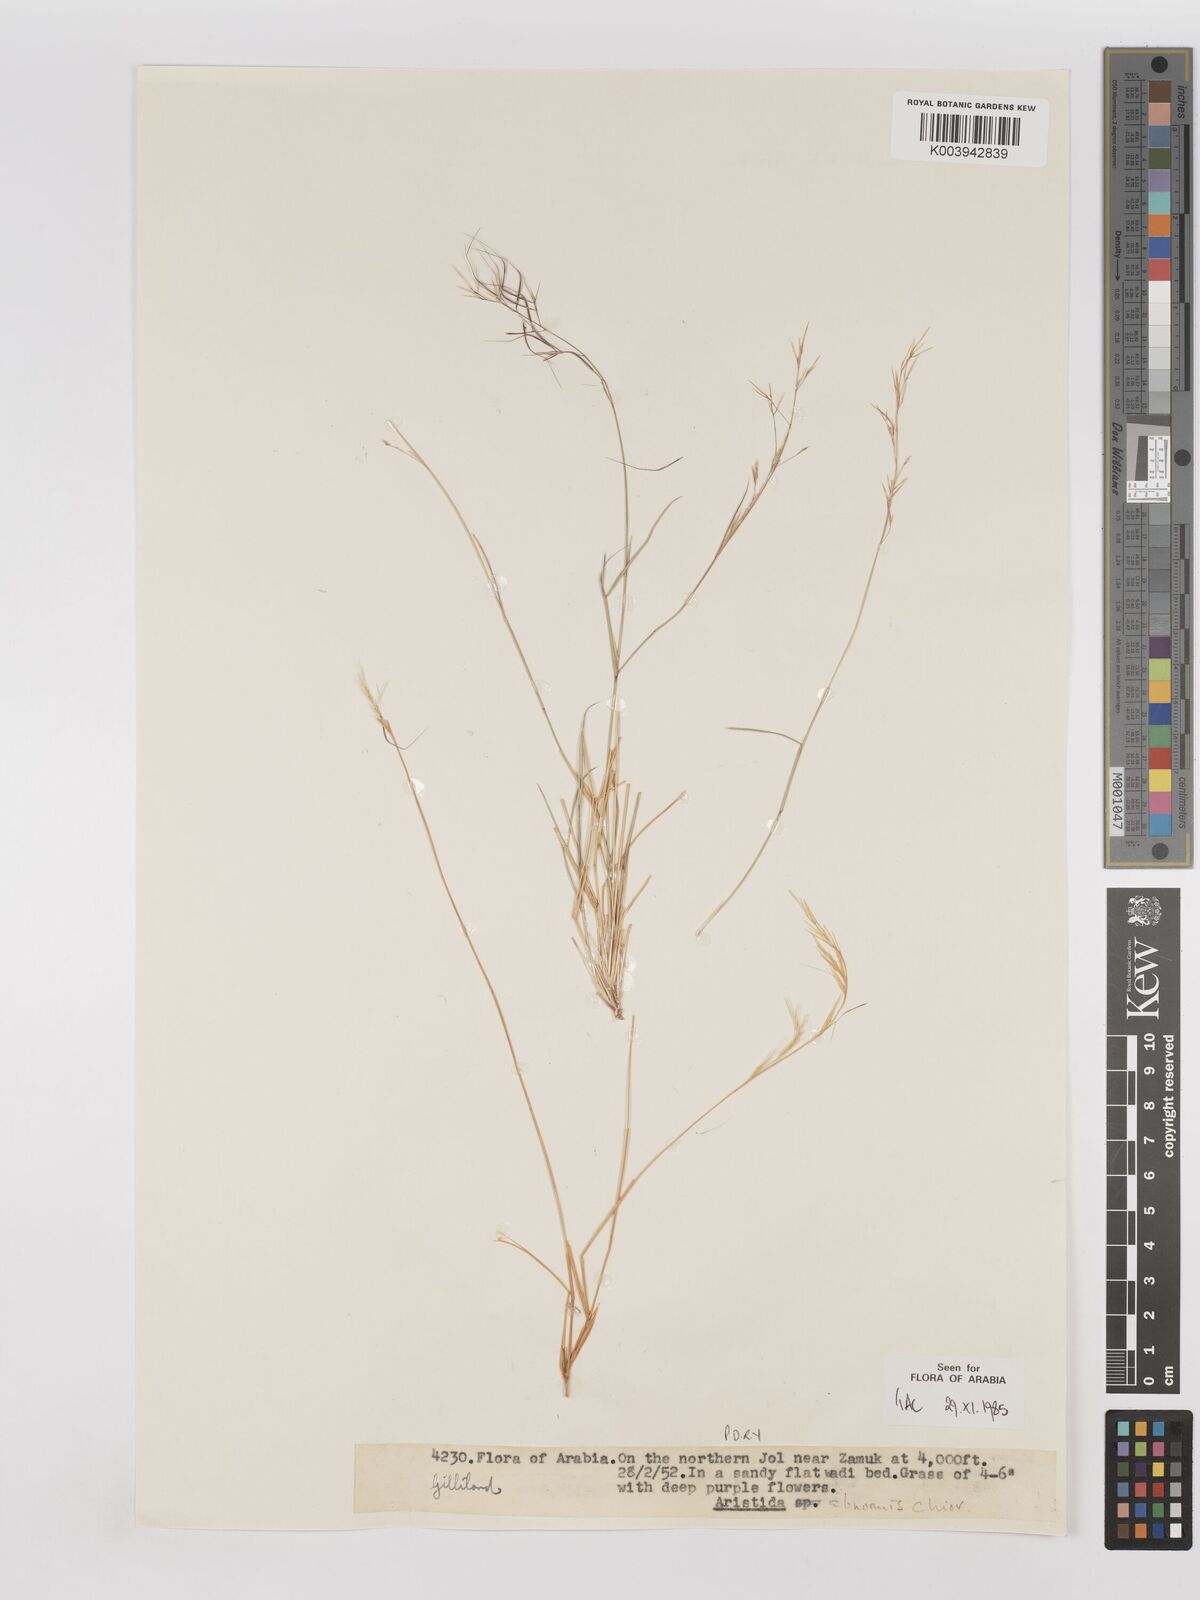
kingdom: Plantae
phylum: Tracheophyta
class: Liliopsida
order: Poales
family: Poaceae
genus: Aristida
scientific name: Aristida abnormis
